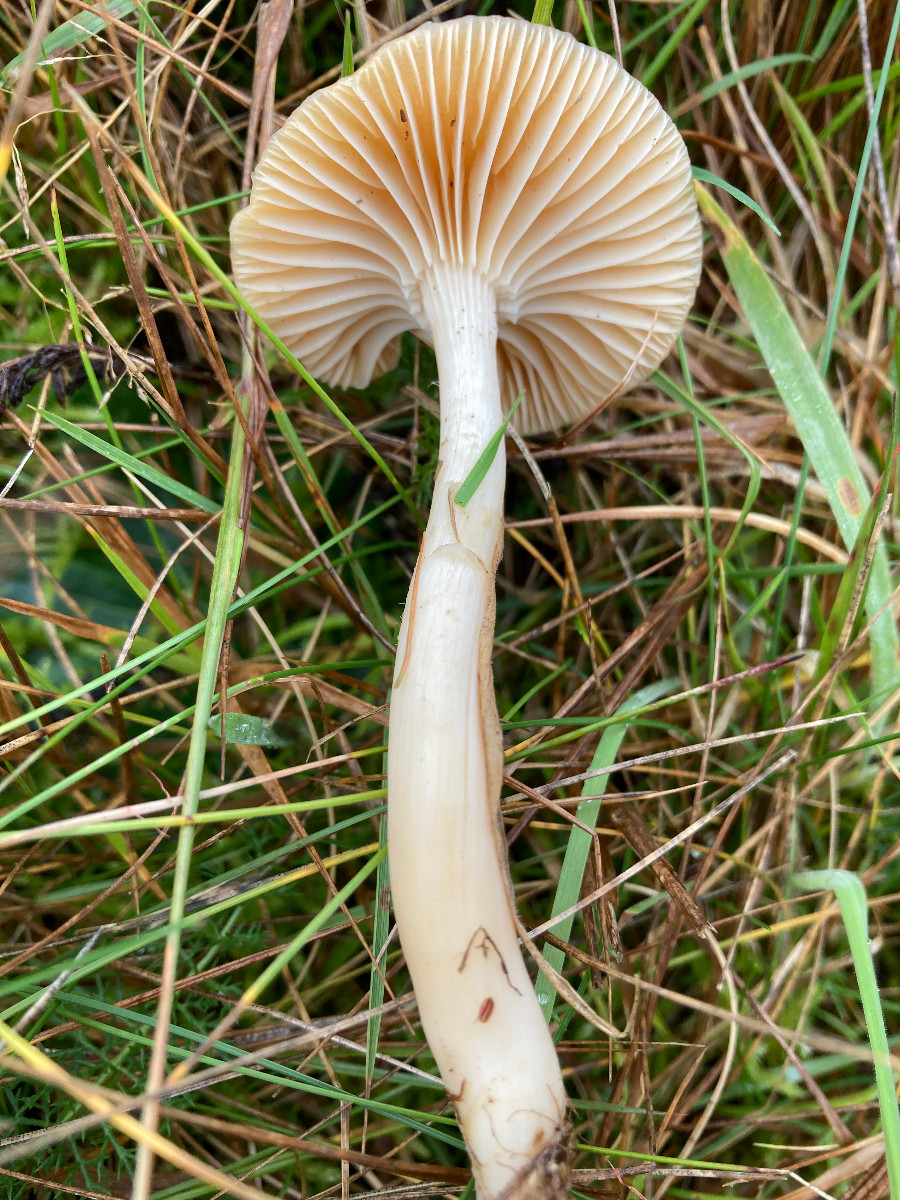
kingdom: Fungi
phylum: Basidiomycota
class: Agaricomycetes
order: Agaricales
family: Hygrophoraceae
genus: Cuphophyllus
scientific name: Cuphophyllus pratensis
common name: eng-vokshat
